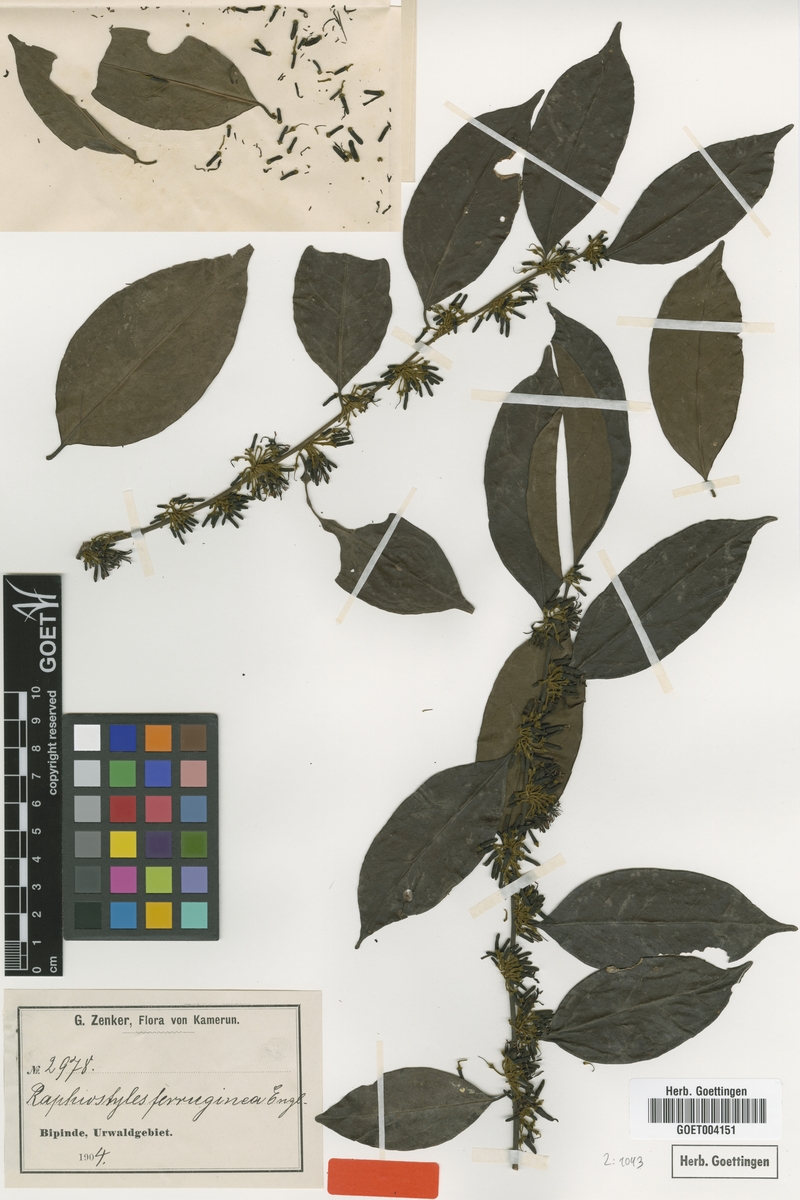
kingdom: Plantae
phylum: Tracheophyta
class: Magnoliopsida
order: Metteniusales
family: Metteniusaceae
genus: Rhaphiostylis
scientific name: Rhaphiostylis ferruginea
